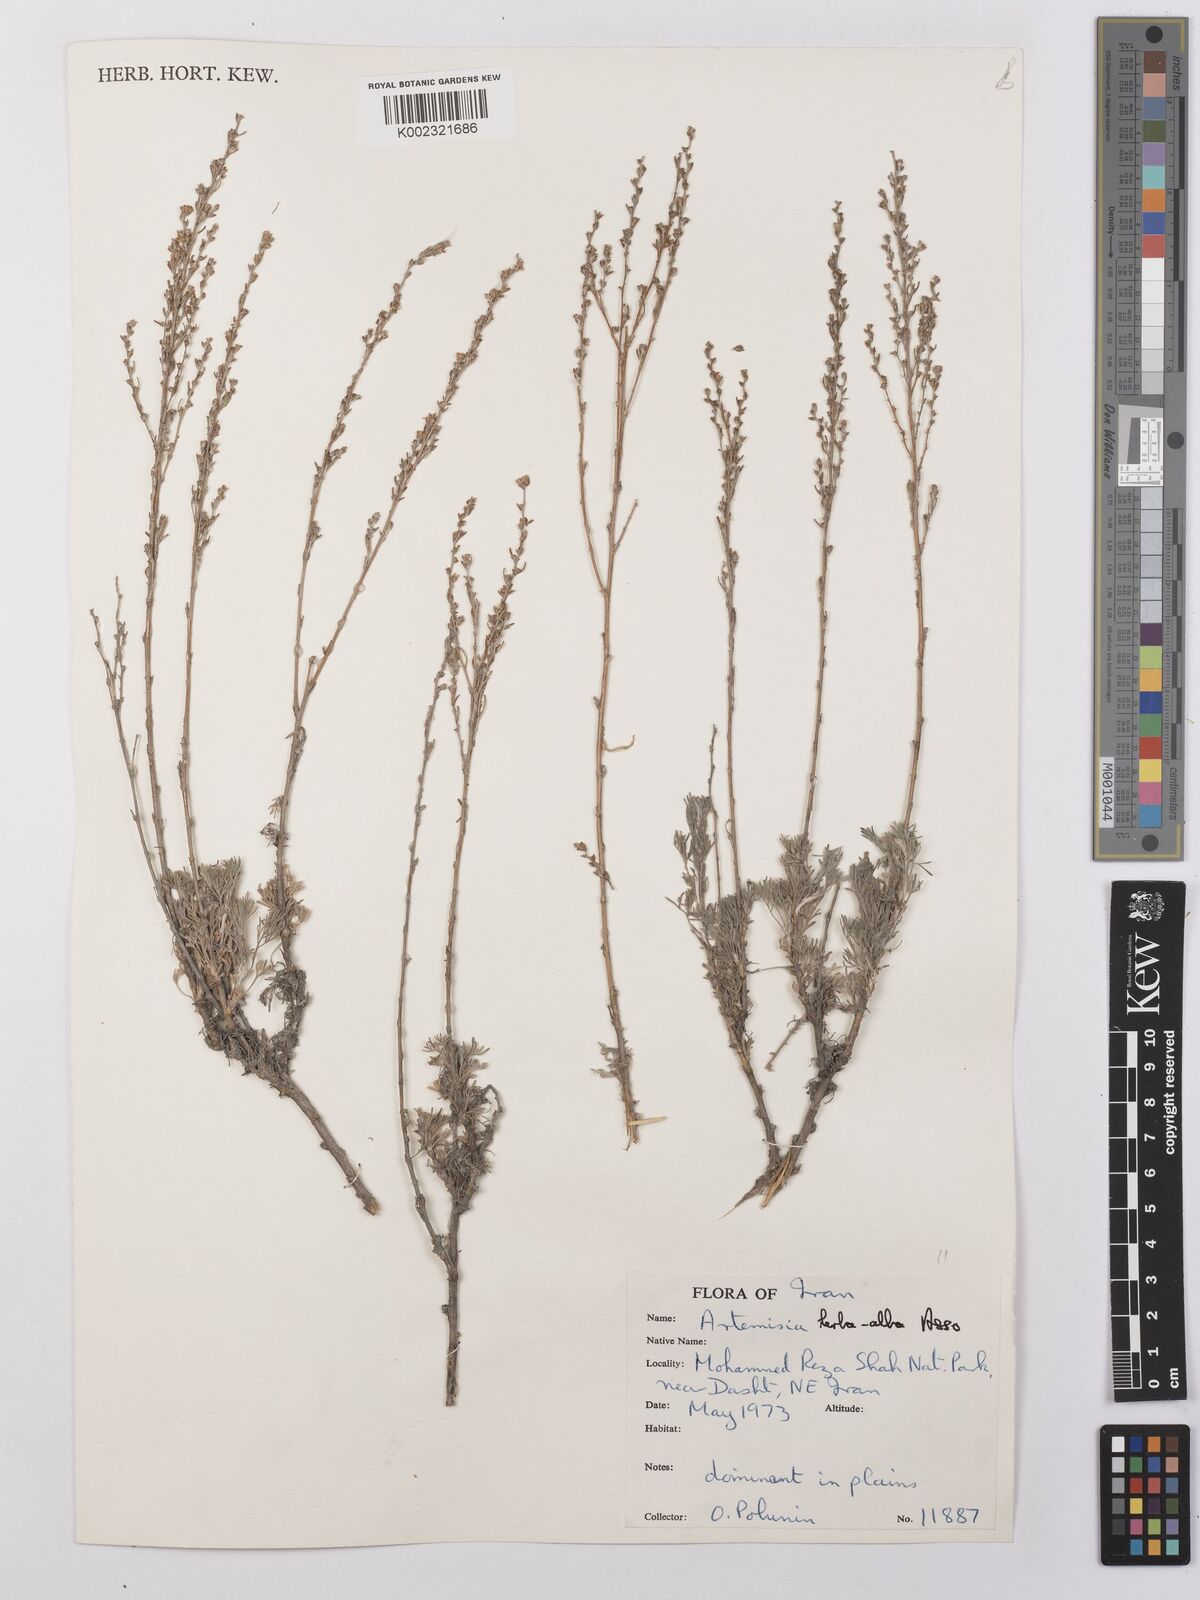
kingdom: Plantae
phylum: Tracheophyta
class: Magnoliopsida
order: Asterales
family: Asteraceae
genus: Artemisia
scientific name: Artemisia herba-alba
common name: White wormwood
